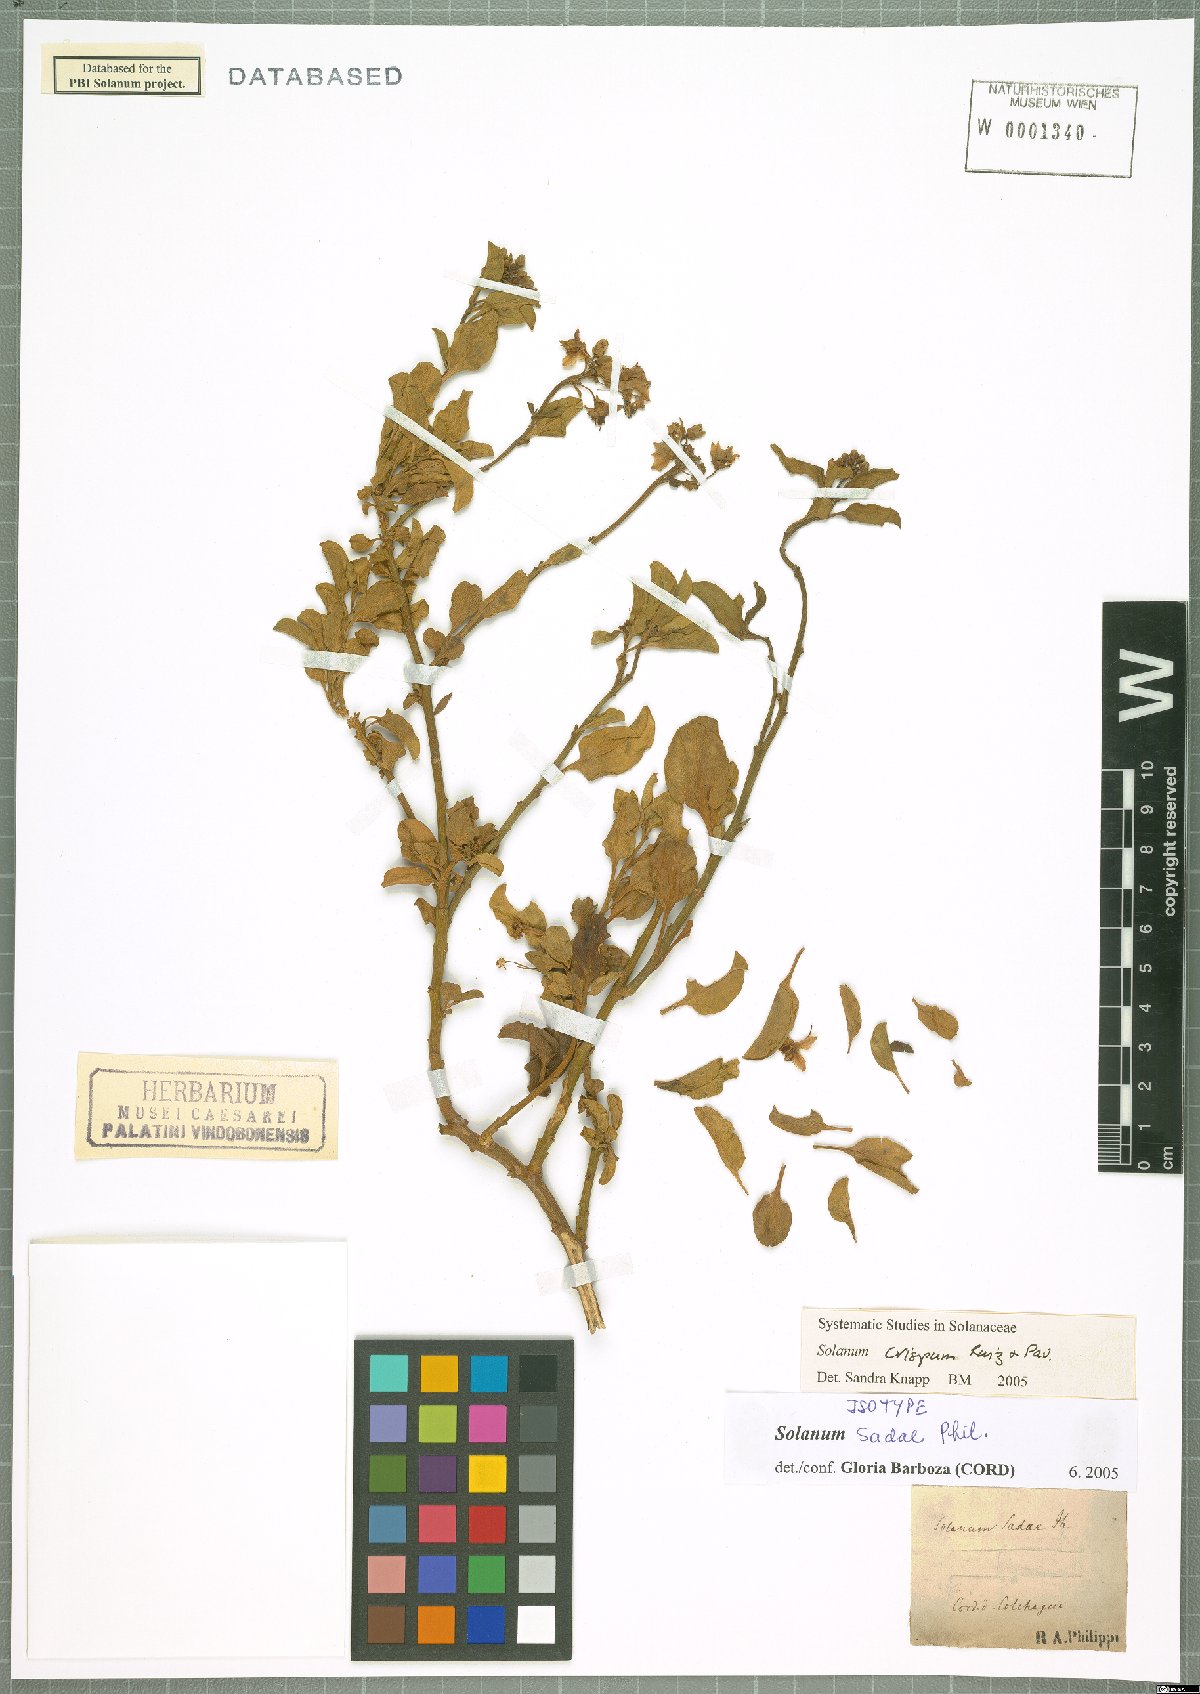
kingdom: Plantae
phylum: Tracheophyta
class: Magnoliopsida
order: Solanales
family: Solanaceae
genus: Solanum
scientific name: Solanum crispum
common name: Chilean nightshade
